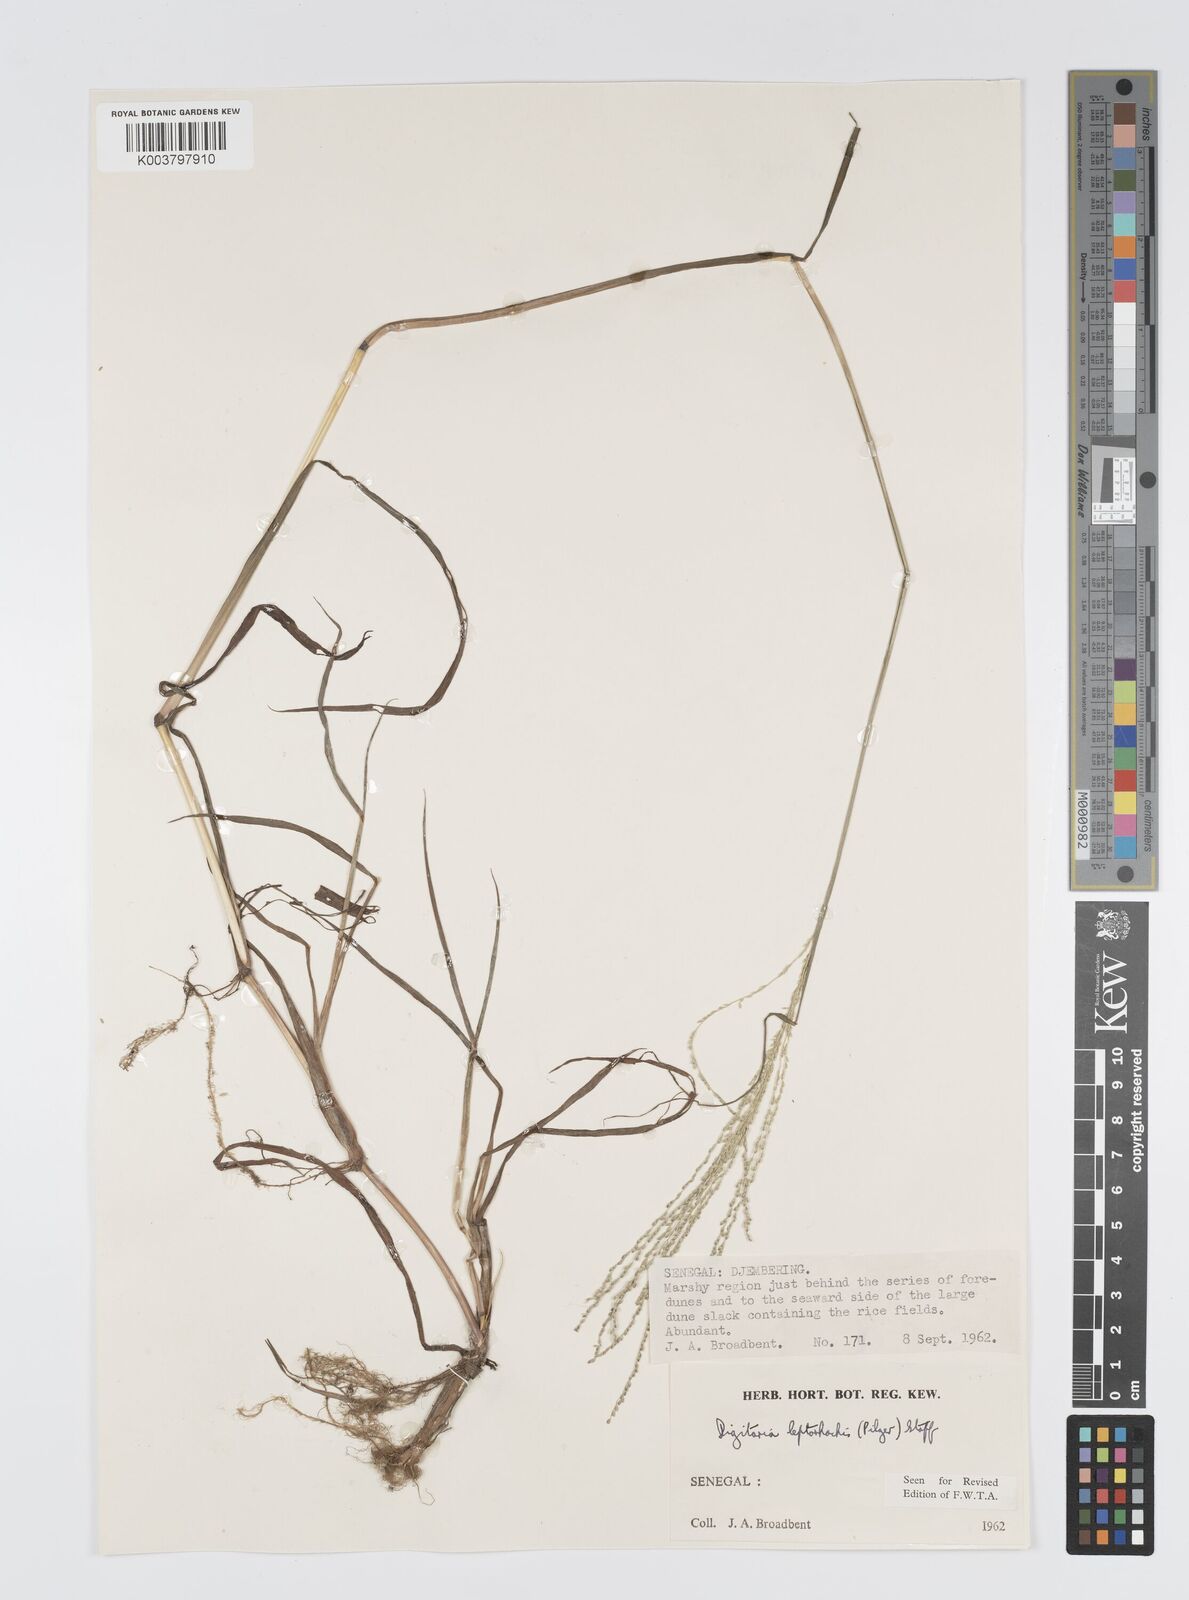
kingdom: Plantae
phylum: Tracheophyta
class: Liliopsida
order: Poales
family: Poaceae
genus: Digitaria
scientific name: Digitaria leptorhachis
